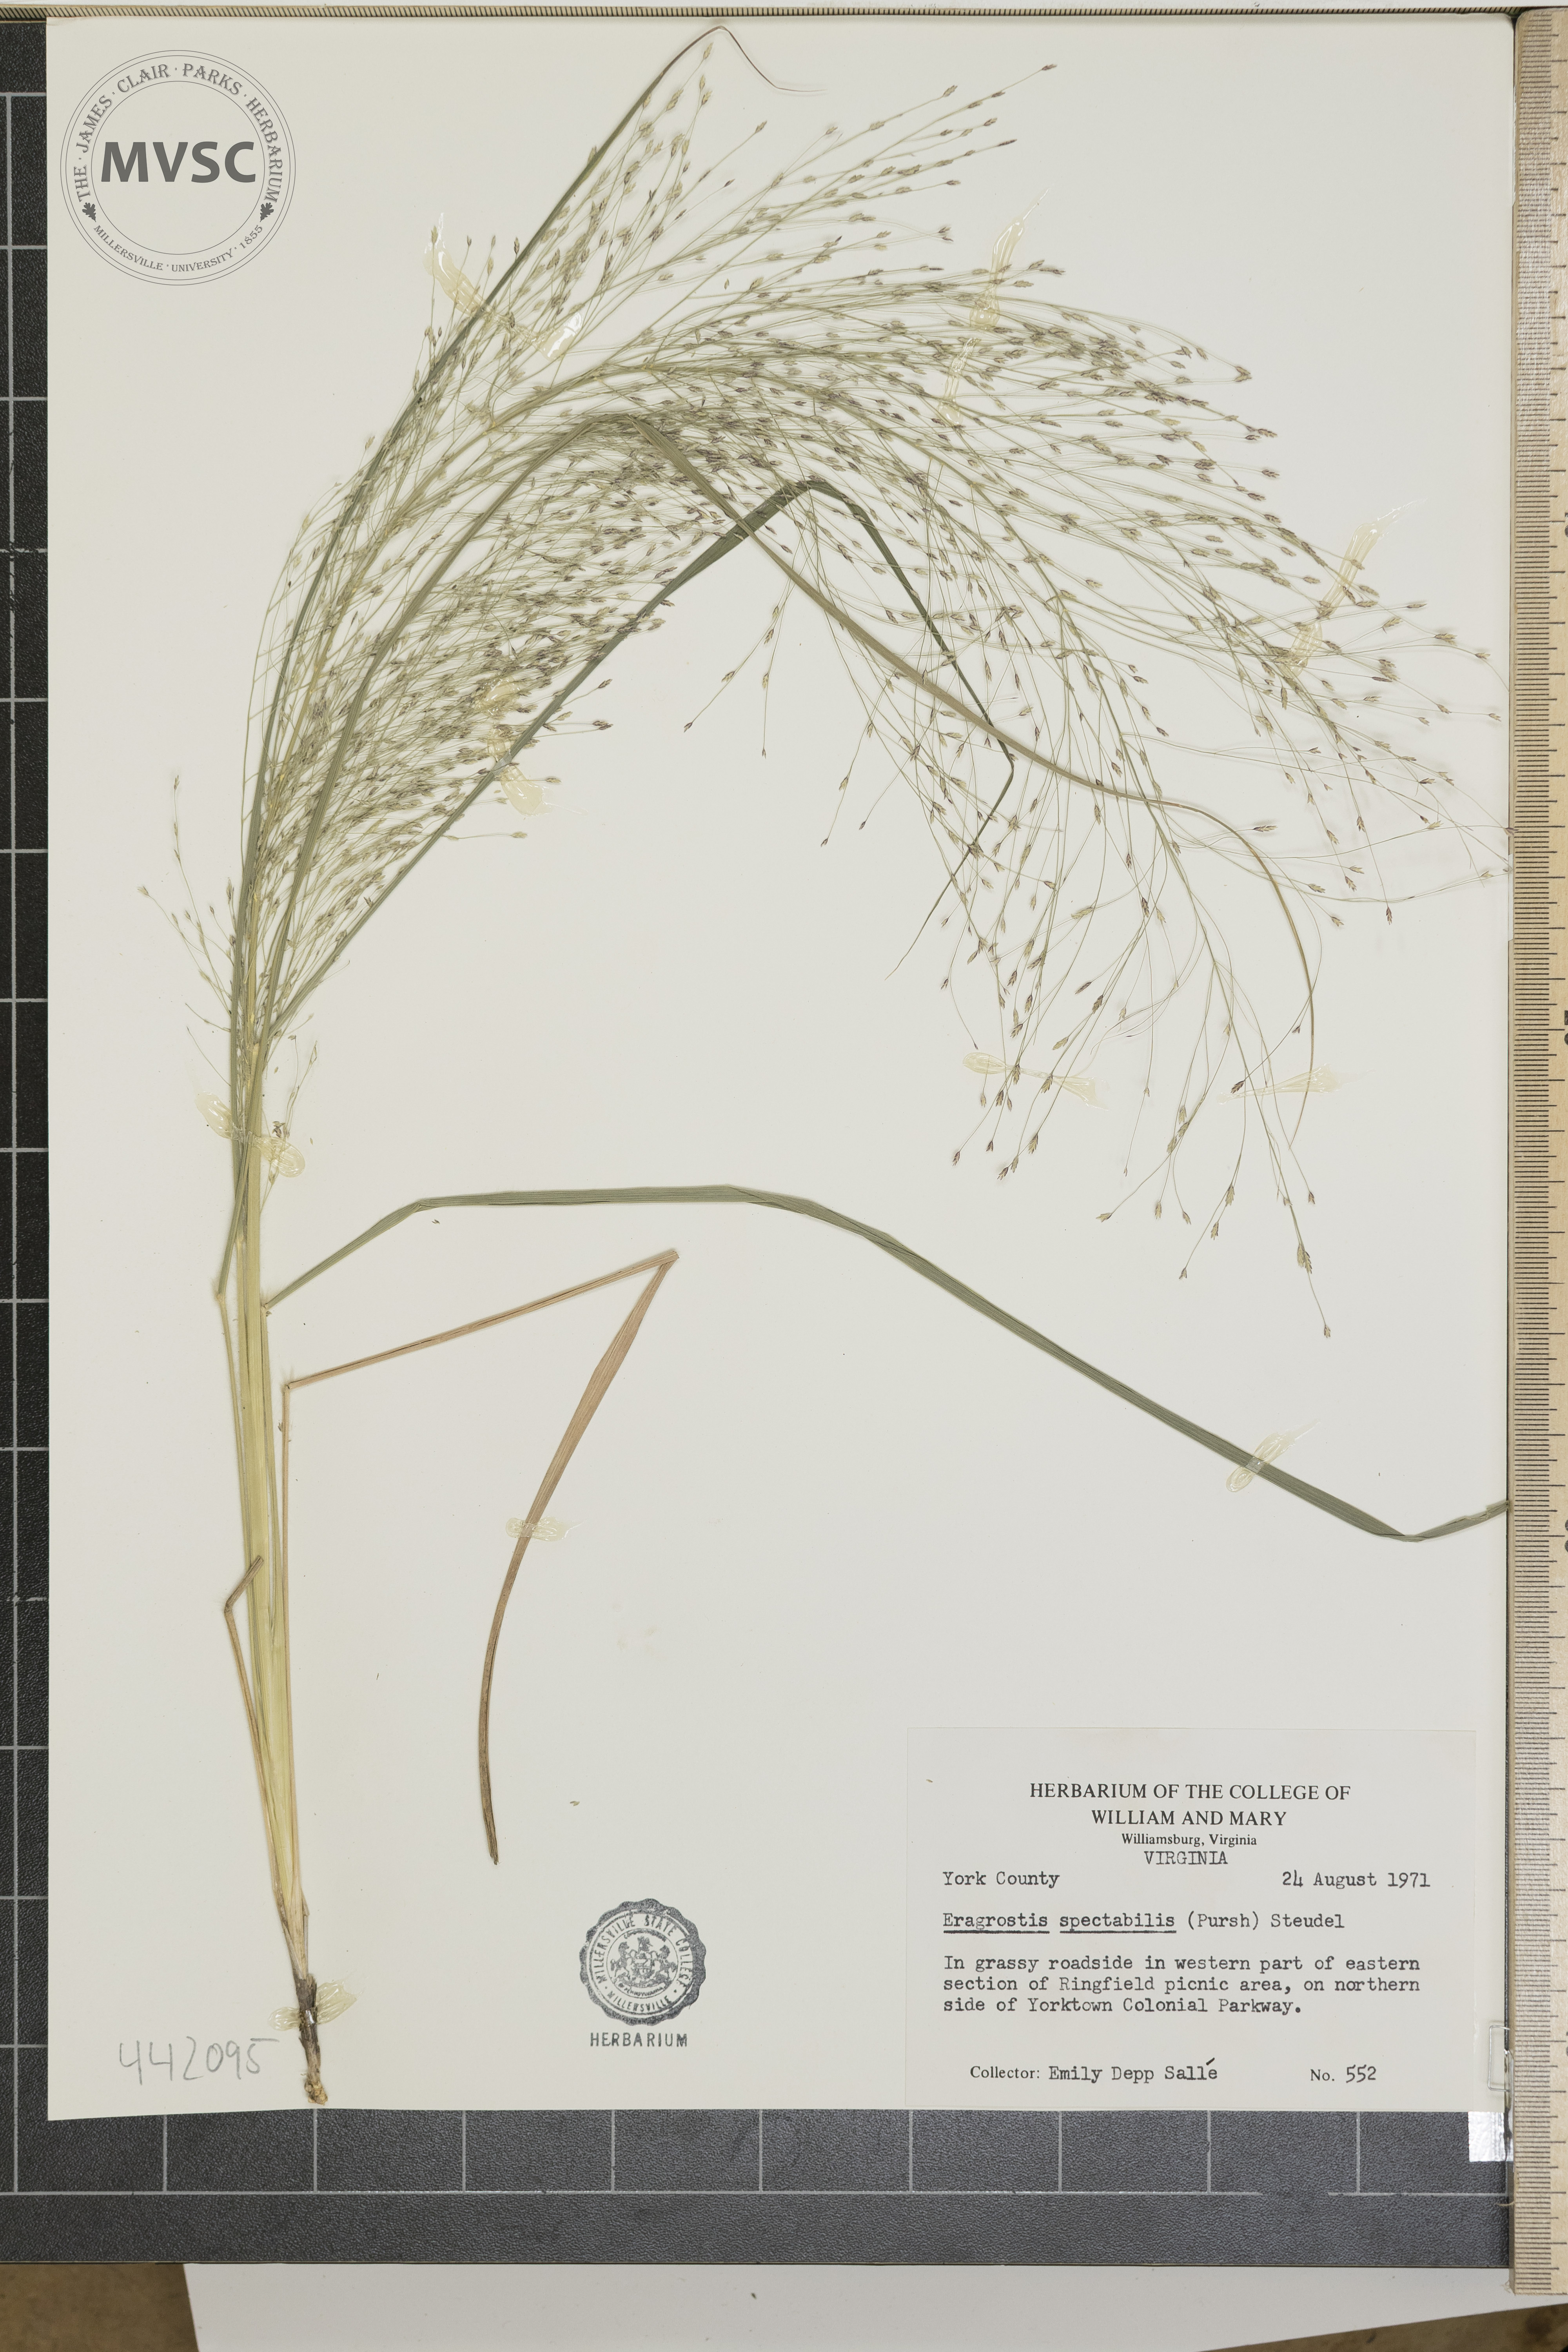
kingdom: Plantae
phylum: Tracheophyta
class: Liliopsida
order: Poales
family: Poaceae
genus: Eragrostis
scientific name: Eragrostis spectabilis
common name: Petticoat-climber
